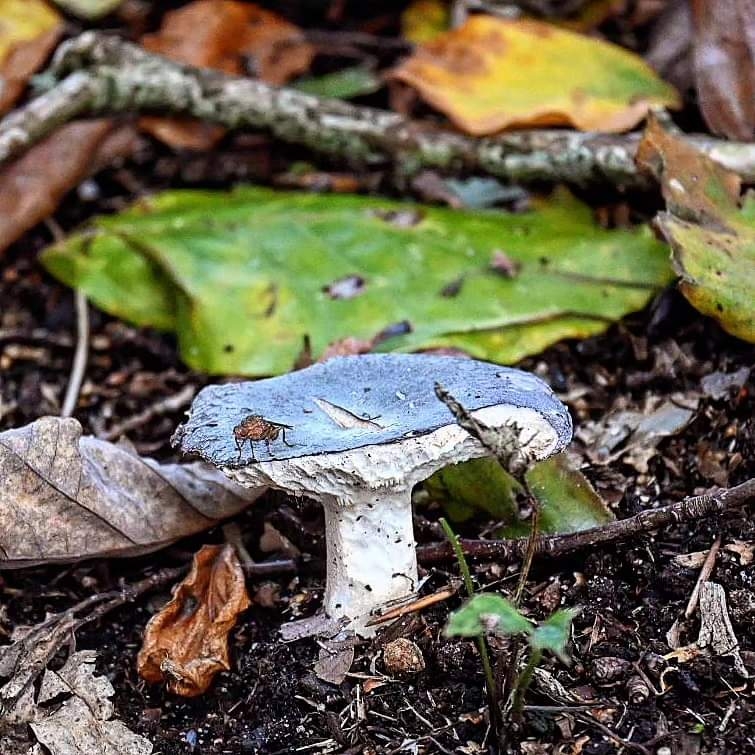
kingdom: Fungi
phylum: Basidiomycota
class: Agaricomycetes
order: Russulales
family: Russulaceae
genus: Russula
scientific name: Russula
